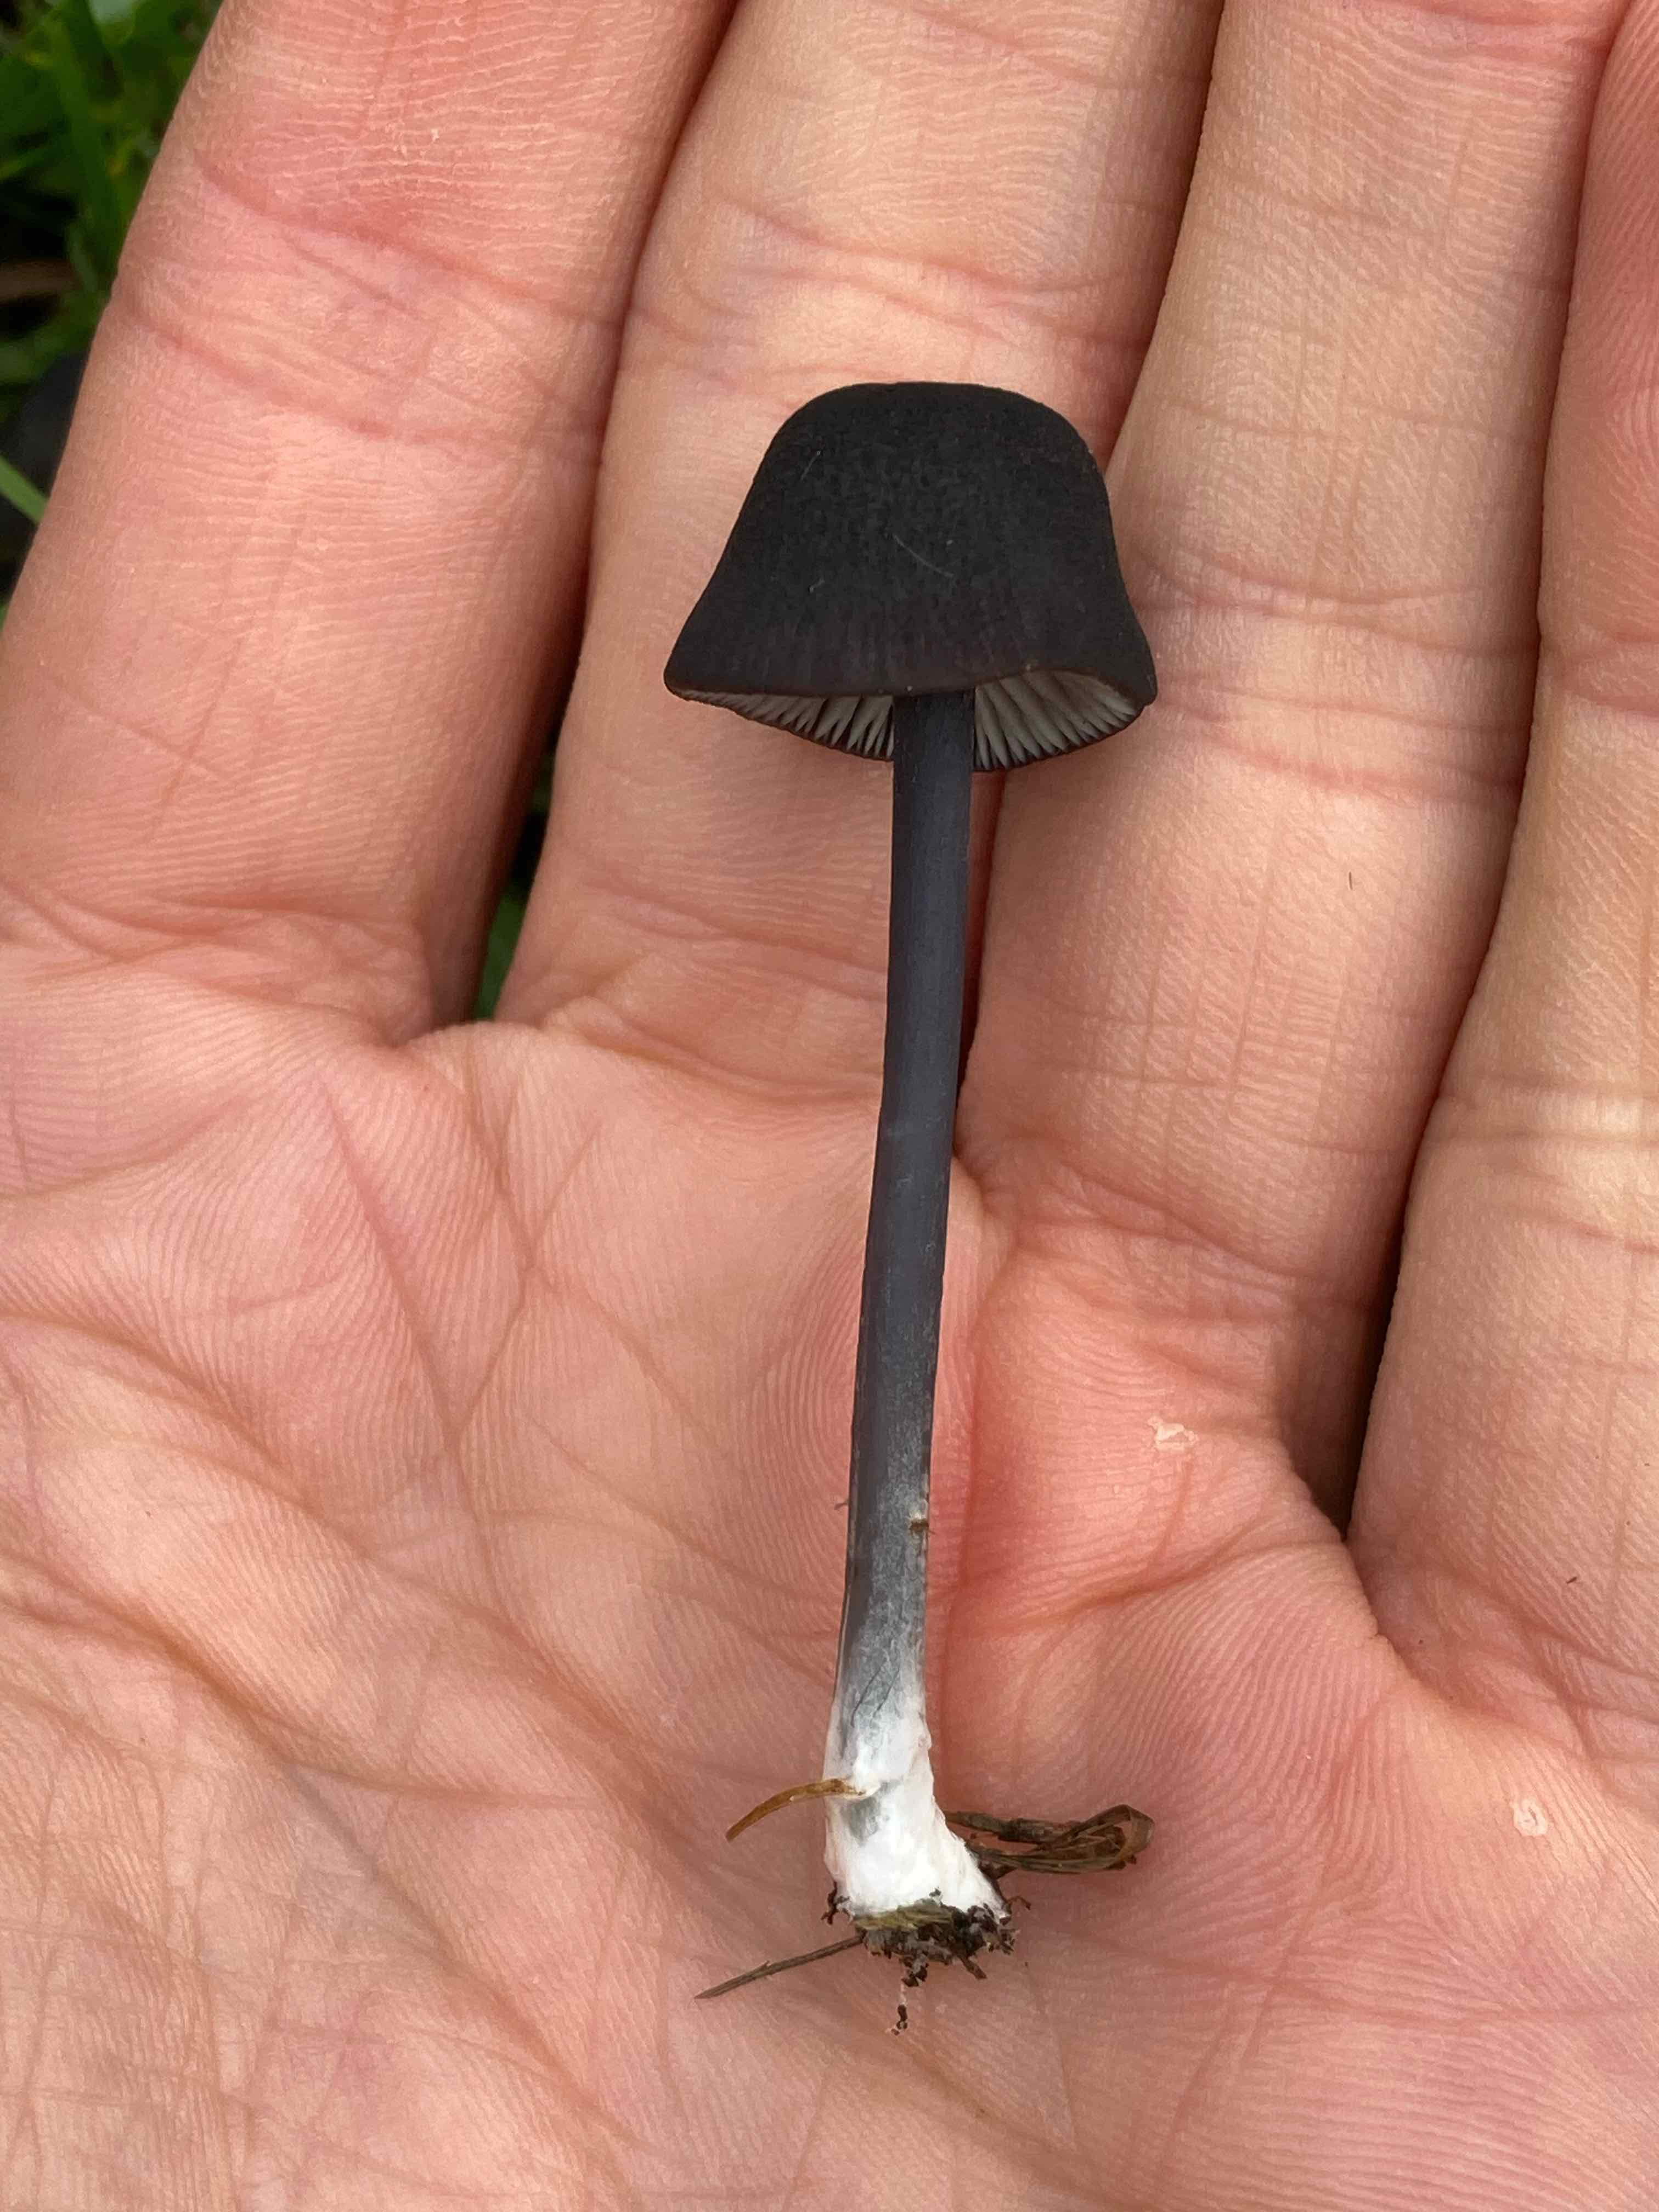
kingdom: Fungi
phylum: Basidiomycota
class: Agaricomycetes
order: Agaricales
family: Entolomataceae
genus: Entoloma
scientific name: Entoloma chalybeum
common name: blåbladet rødblad
